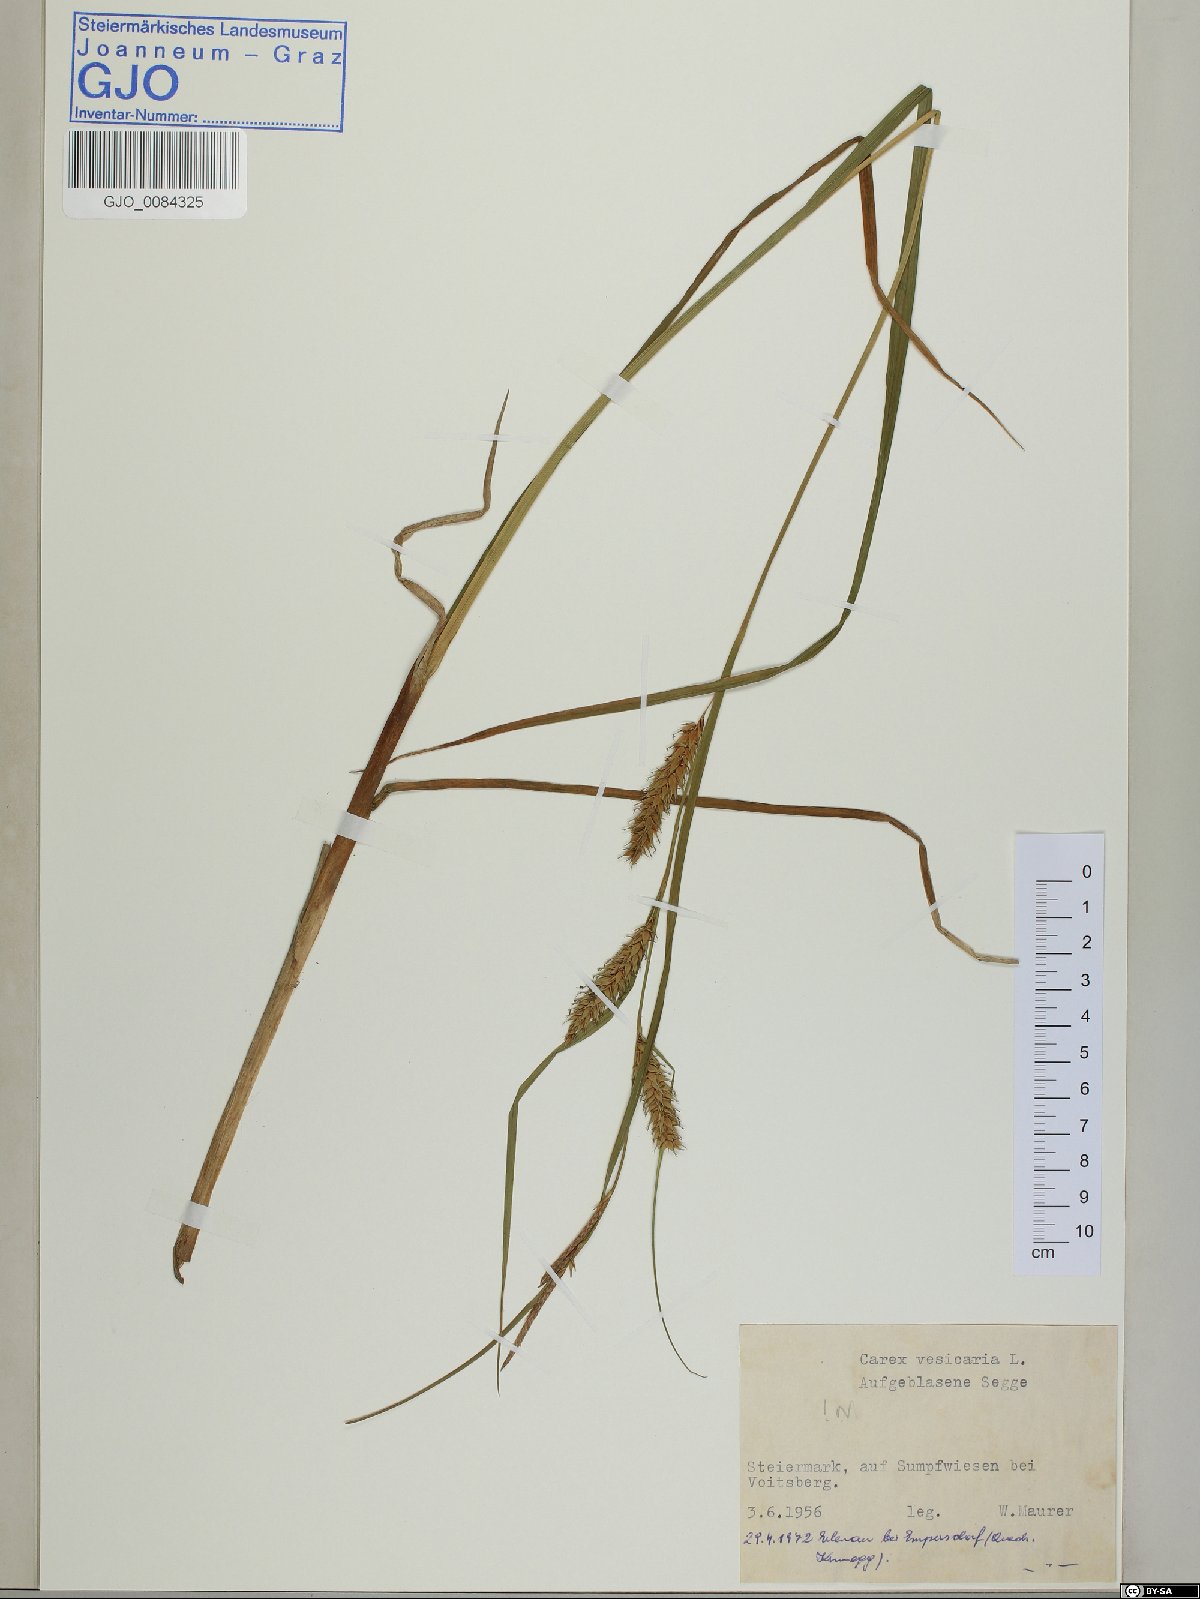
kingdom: Plantae
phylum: Tracheophyta
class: Liliopsida
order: Poales
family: Cyperaceae
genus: Carex
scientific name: Carex vesicaria
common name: Bladder-sedge
